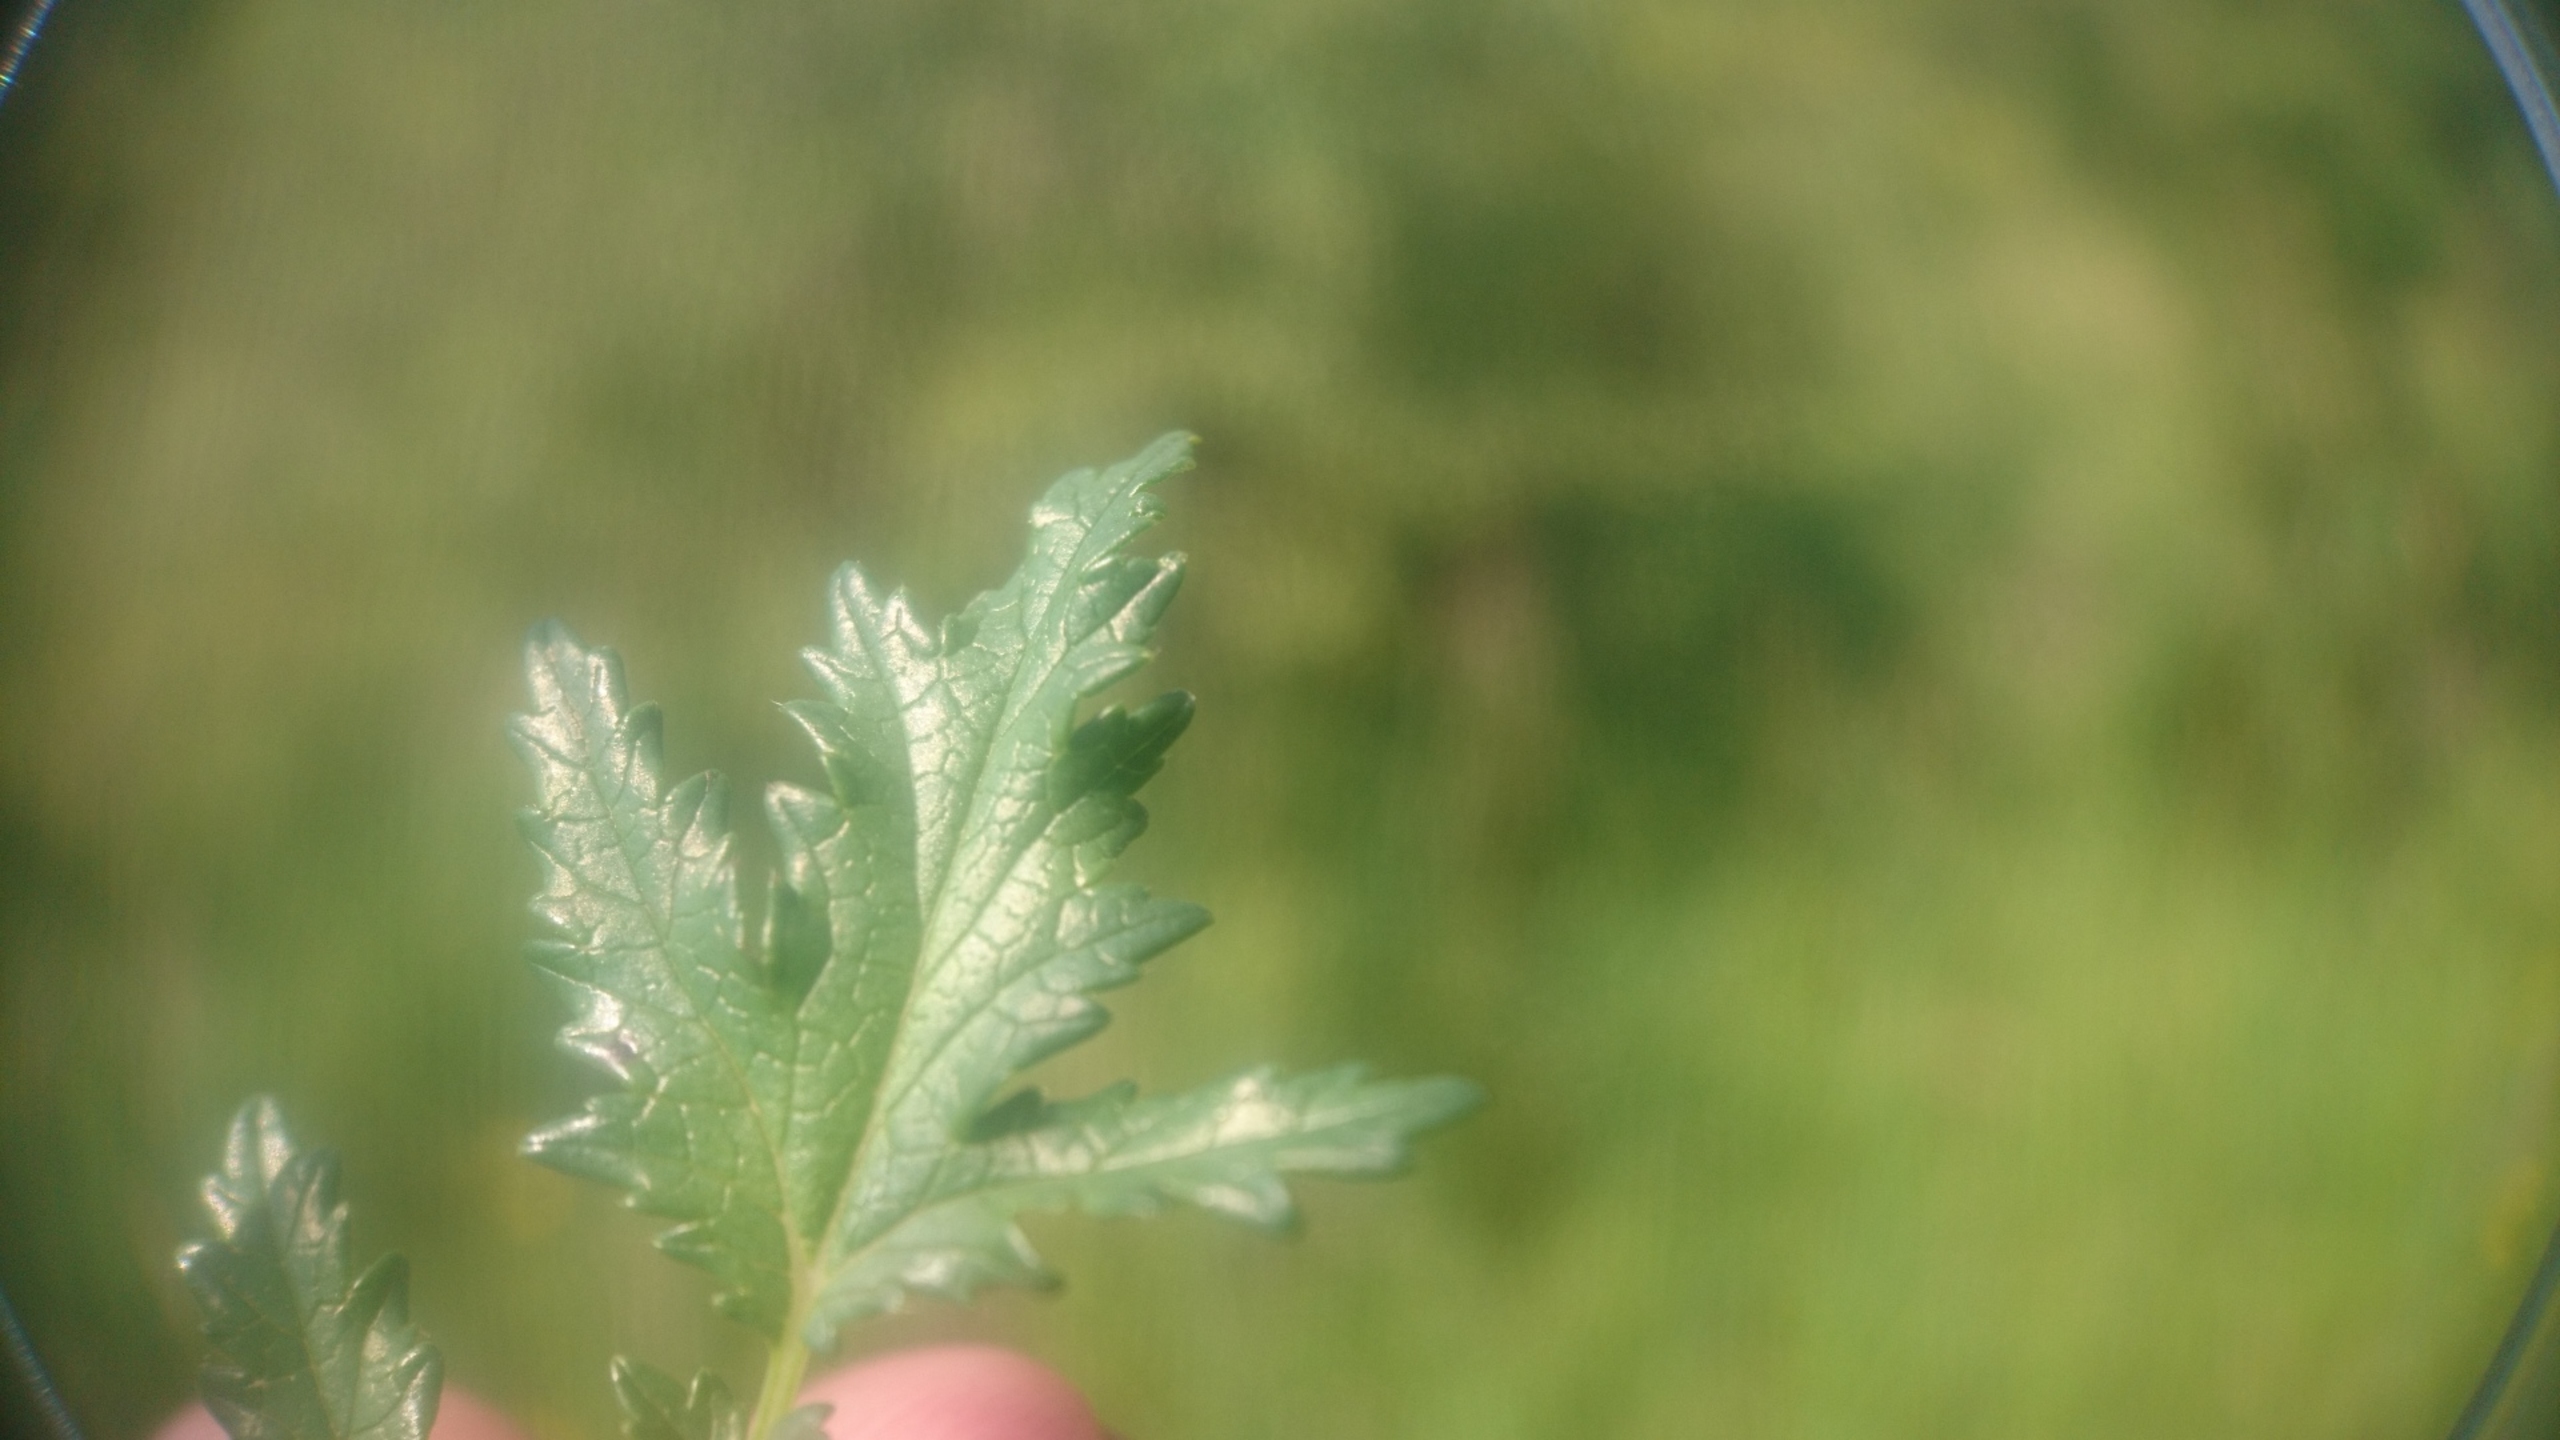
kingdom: Plantae
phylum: Tracheophyta
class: Magnoliopsida
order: Rosales
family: Rosaceae
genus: Filipendula
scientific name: Filipendula vulgaris
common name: Knoldet mjødurt
